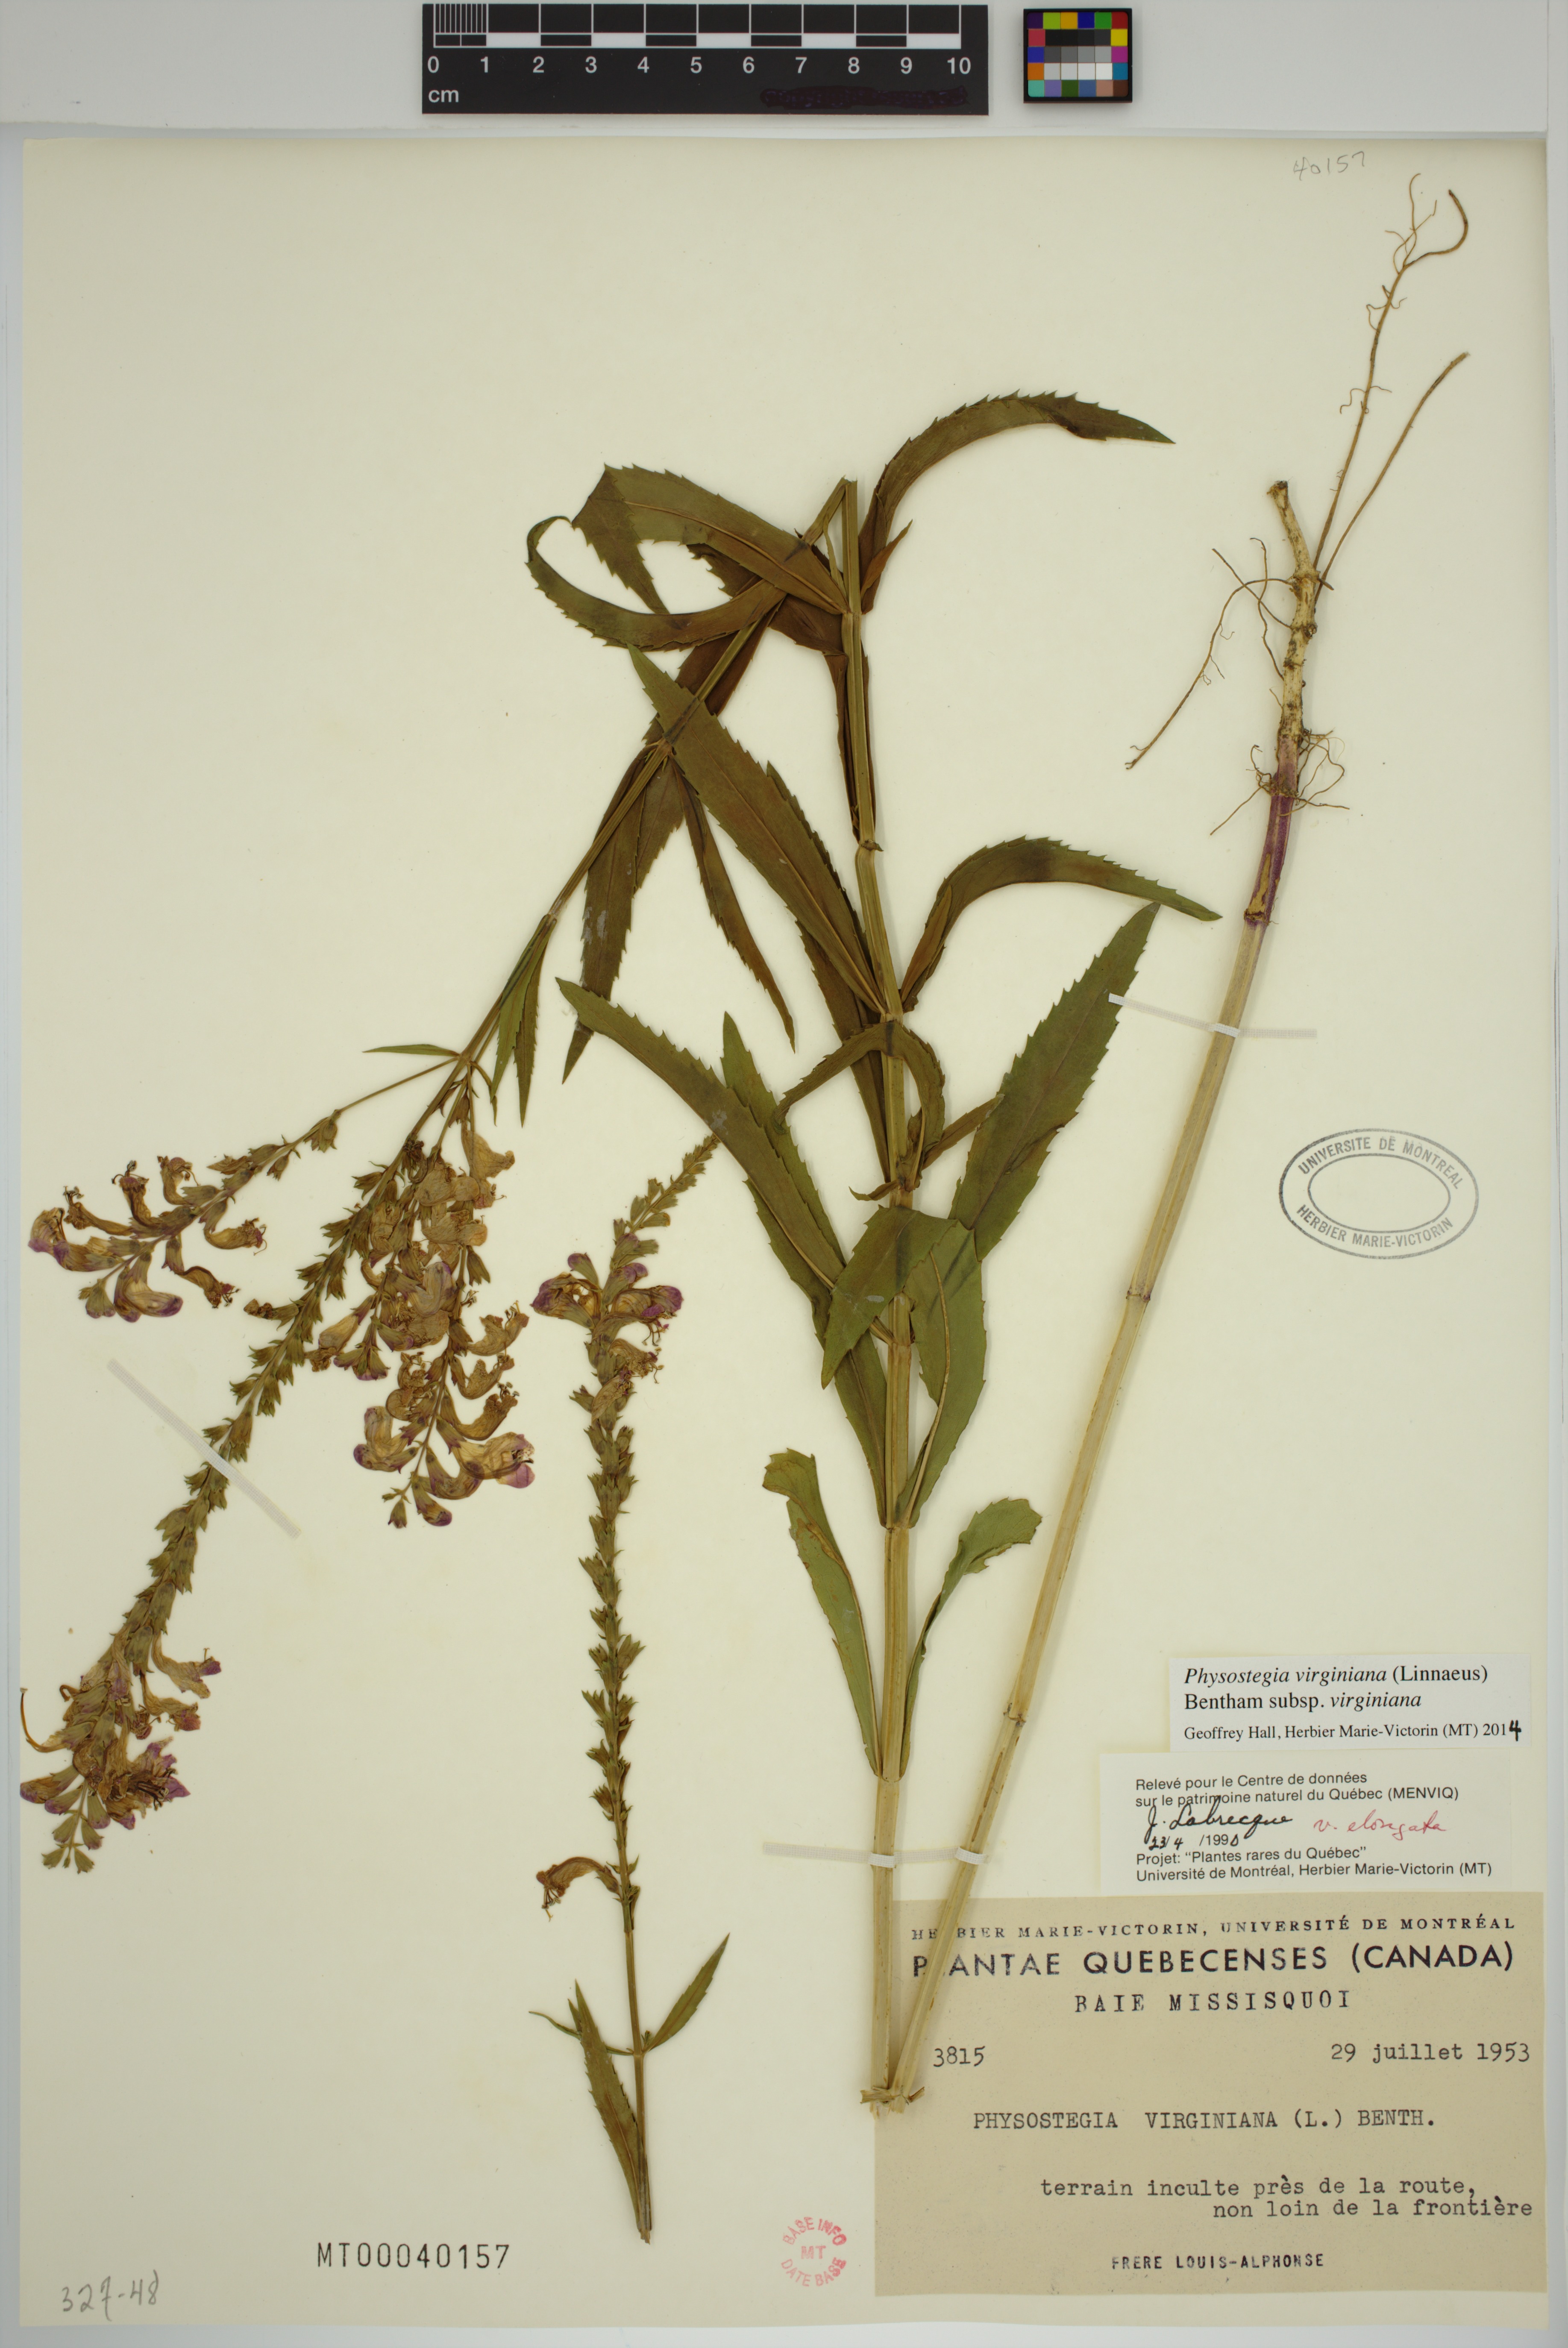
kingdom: Plantae
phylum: Tracheophyta
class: Magnoliopsida
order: Lamiales
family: Lamiaceae
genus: Physostegia
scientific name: Physostegia virginiana
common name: Obedient-plant
